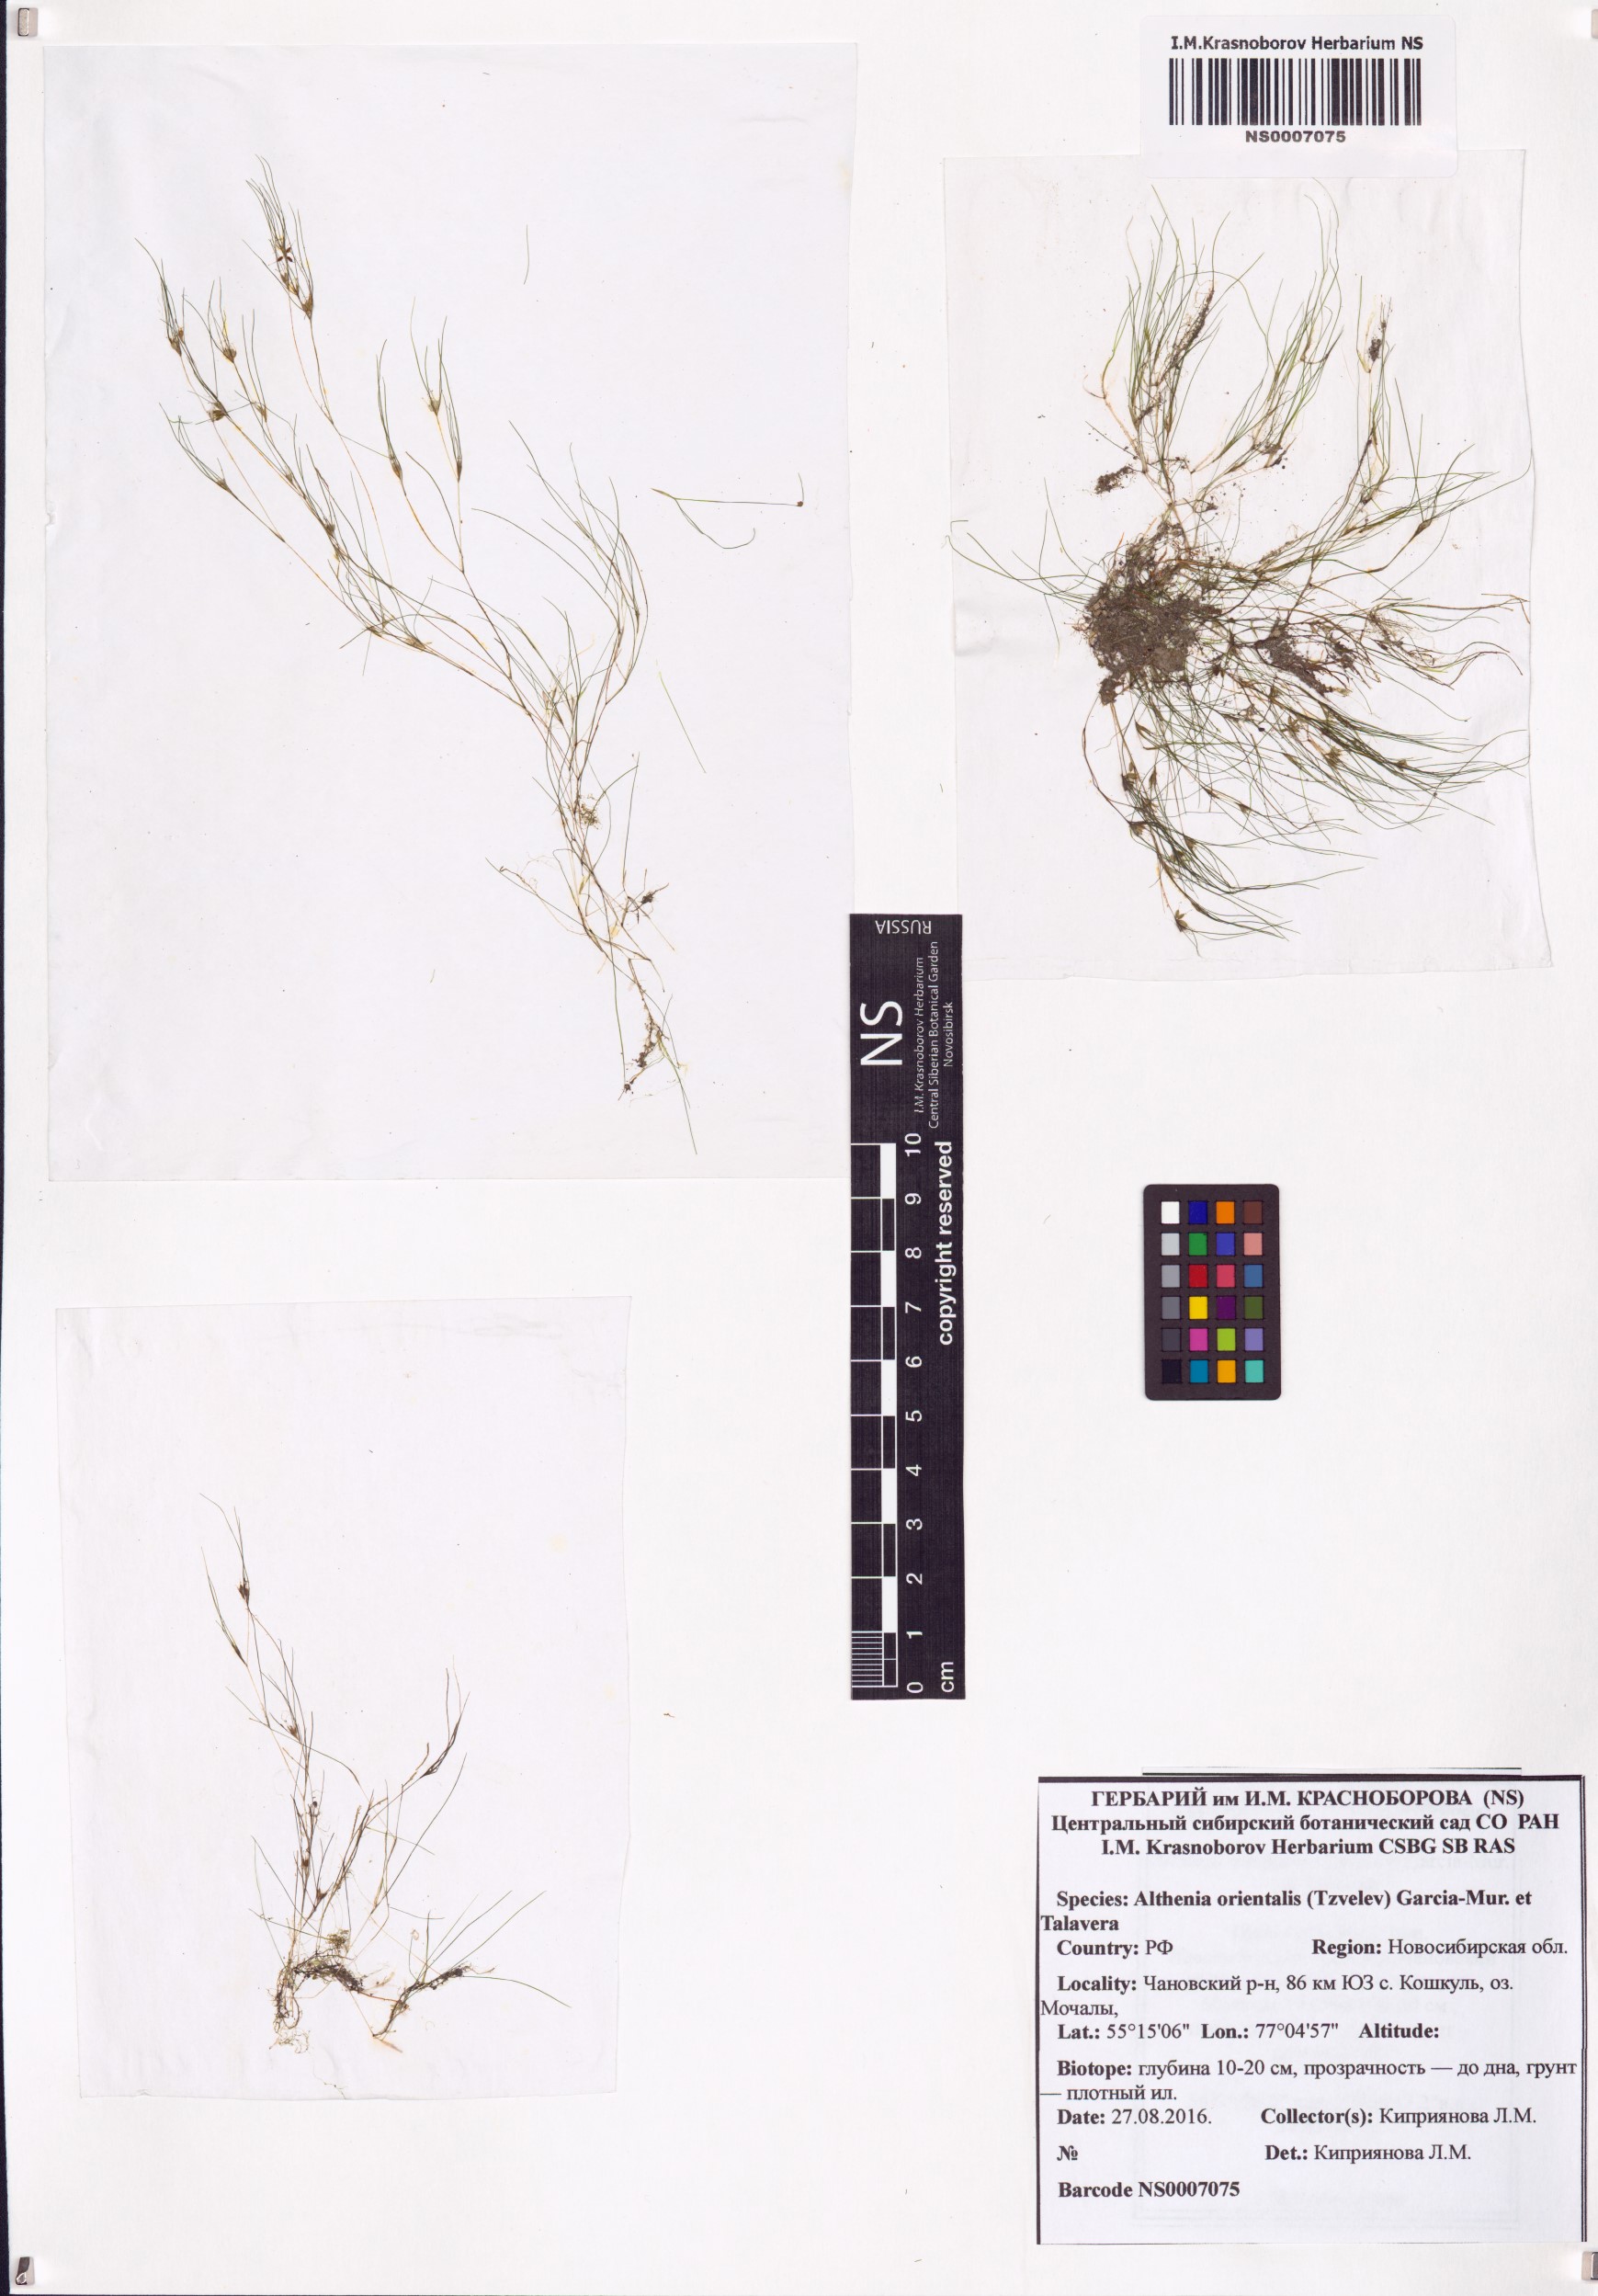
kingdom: Plantae
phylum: Tracheophyta
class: Liliopsida
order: Alismatales
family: Potamogetonaceae
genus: Althenia
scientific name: Althenia orientalis
